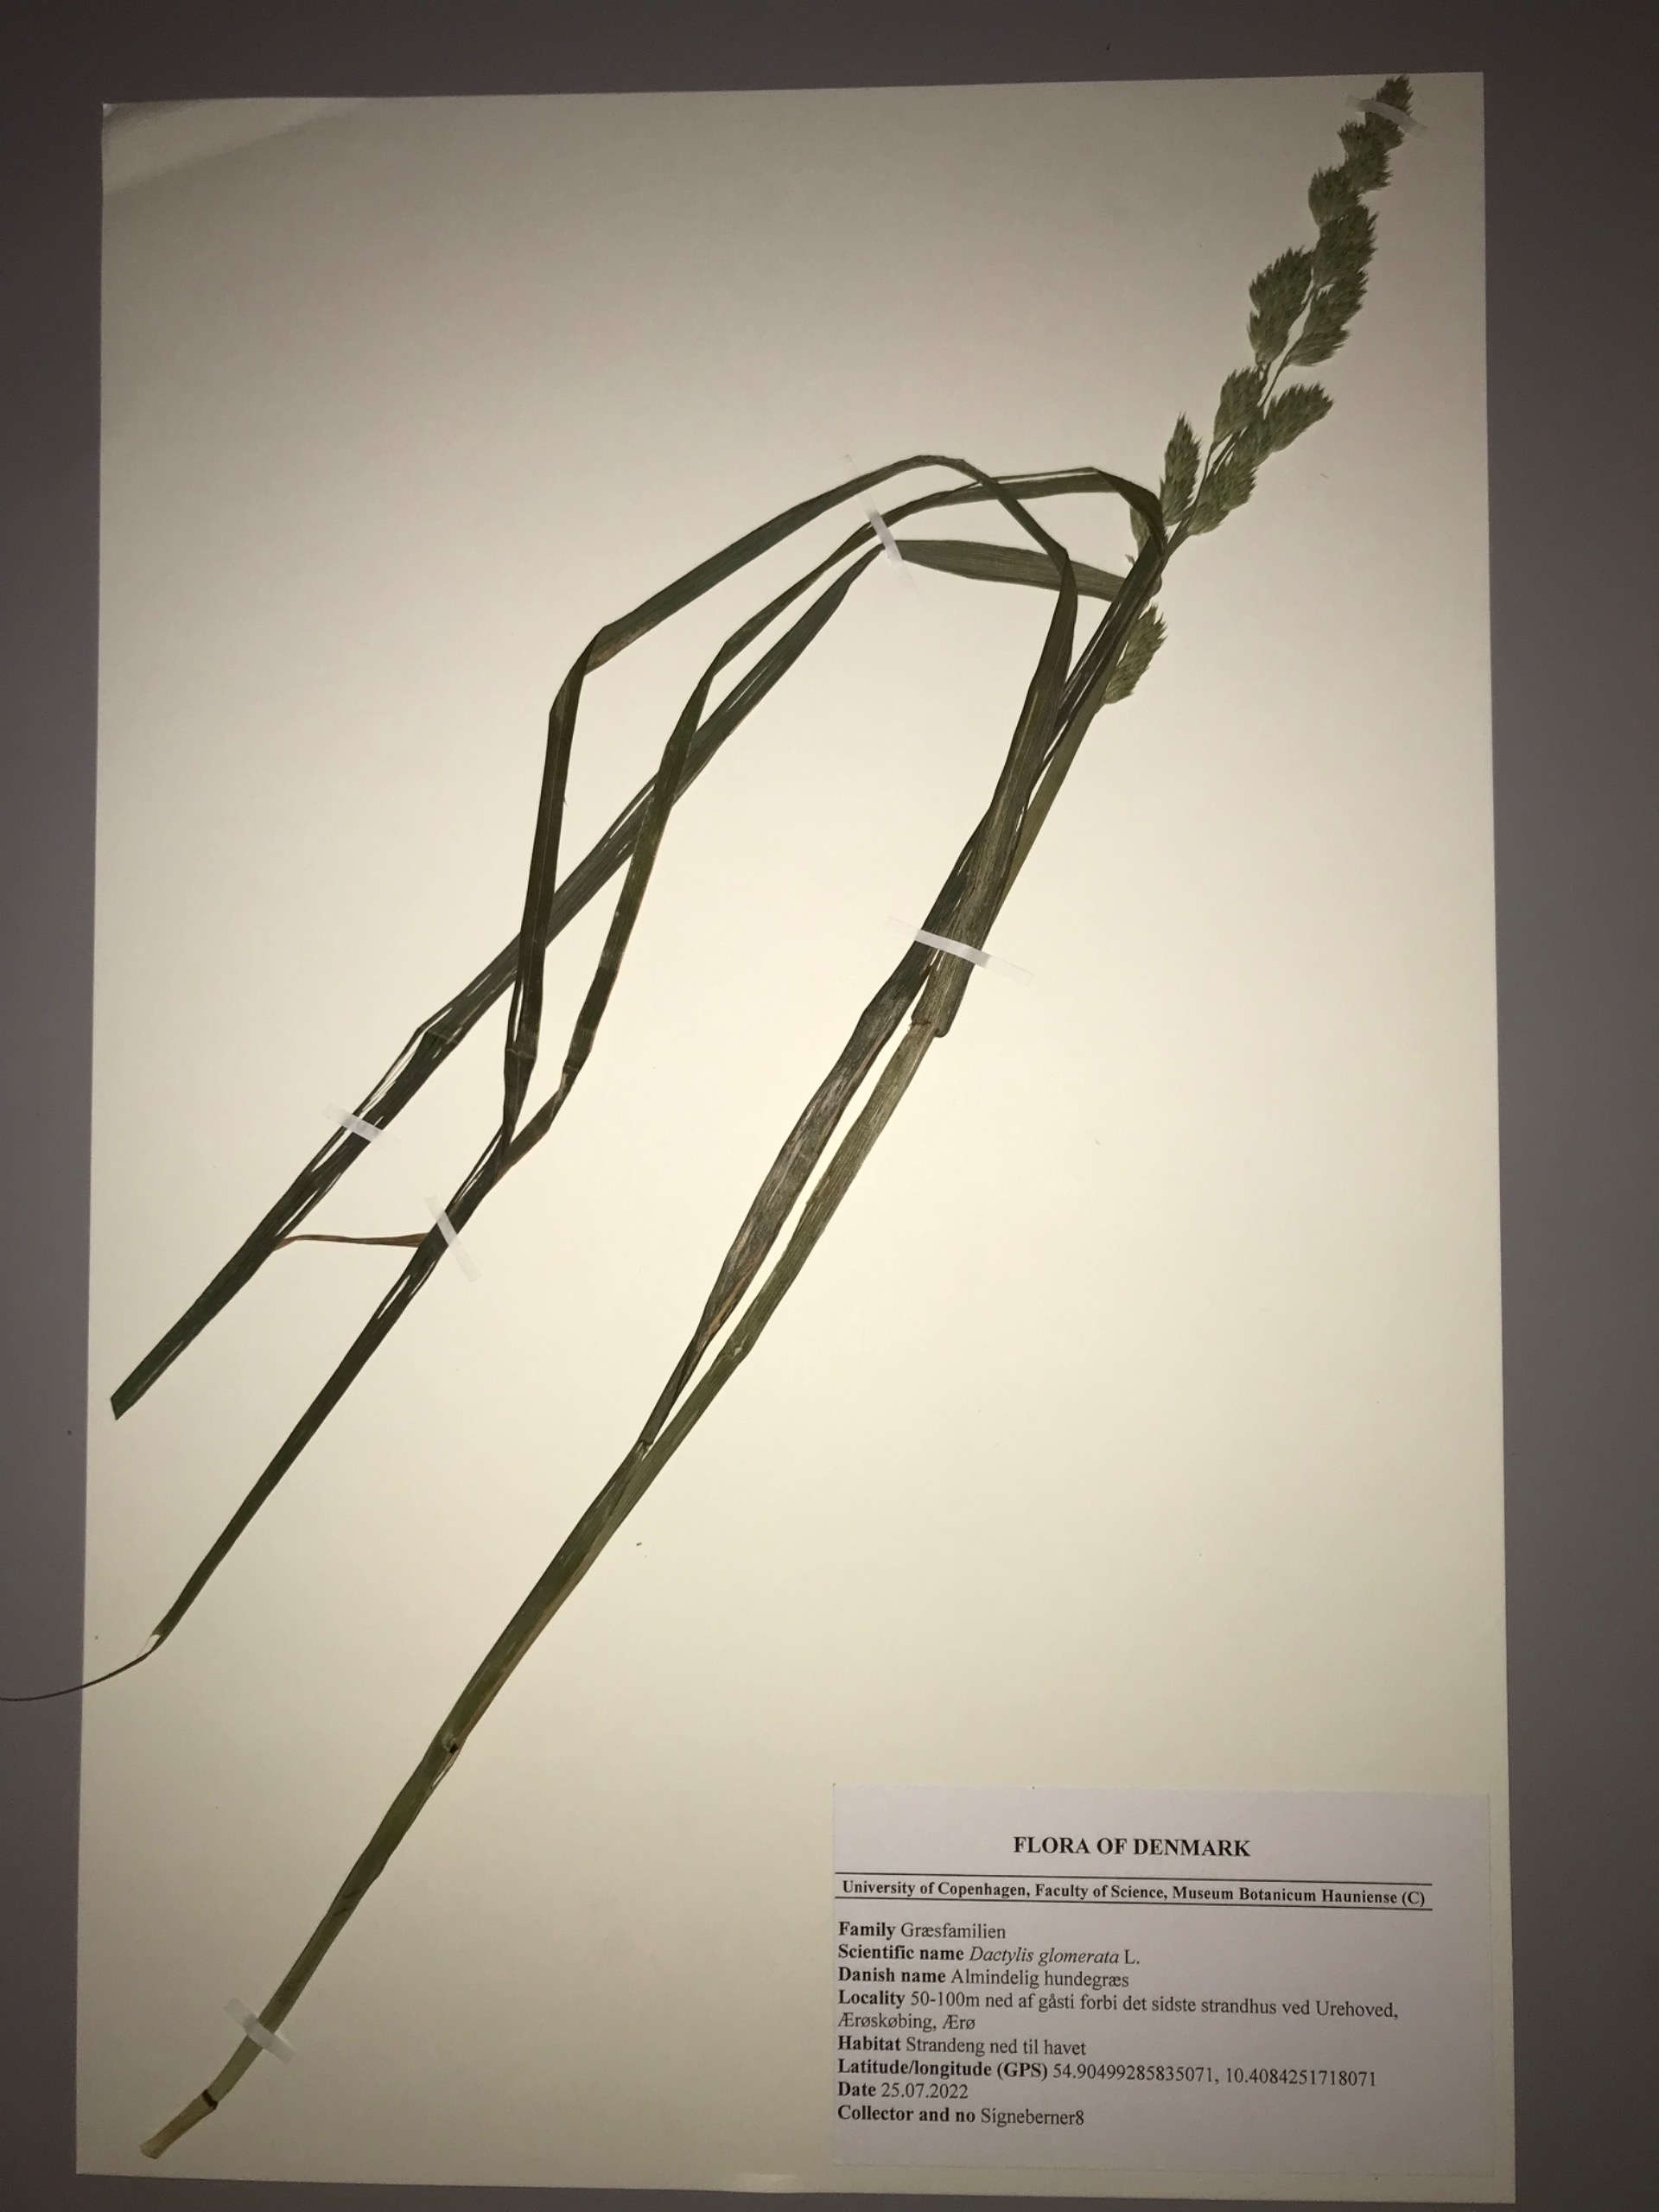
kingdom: Plantae
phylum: Tracheophyta
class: Liliopsida
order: Poales
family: Poaceae
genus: Dactylis
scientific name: Dactylis glomerata
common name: Almindelig hundegræs
